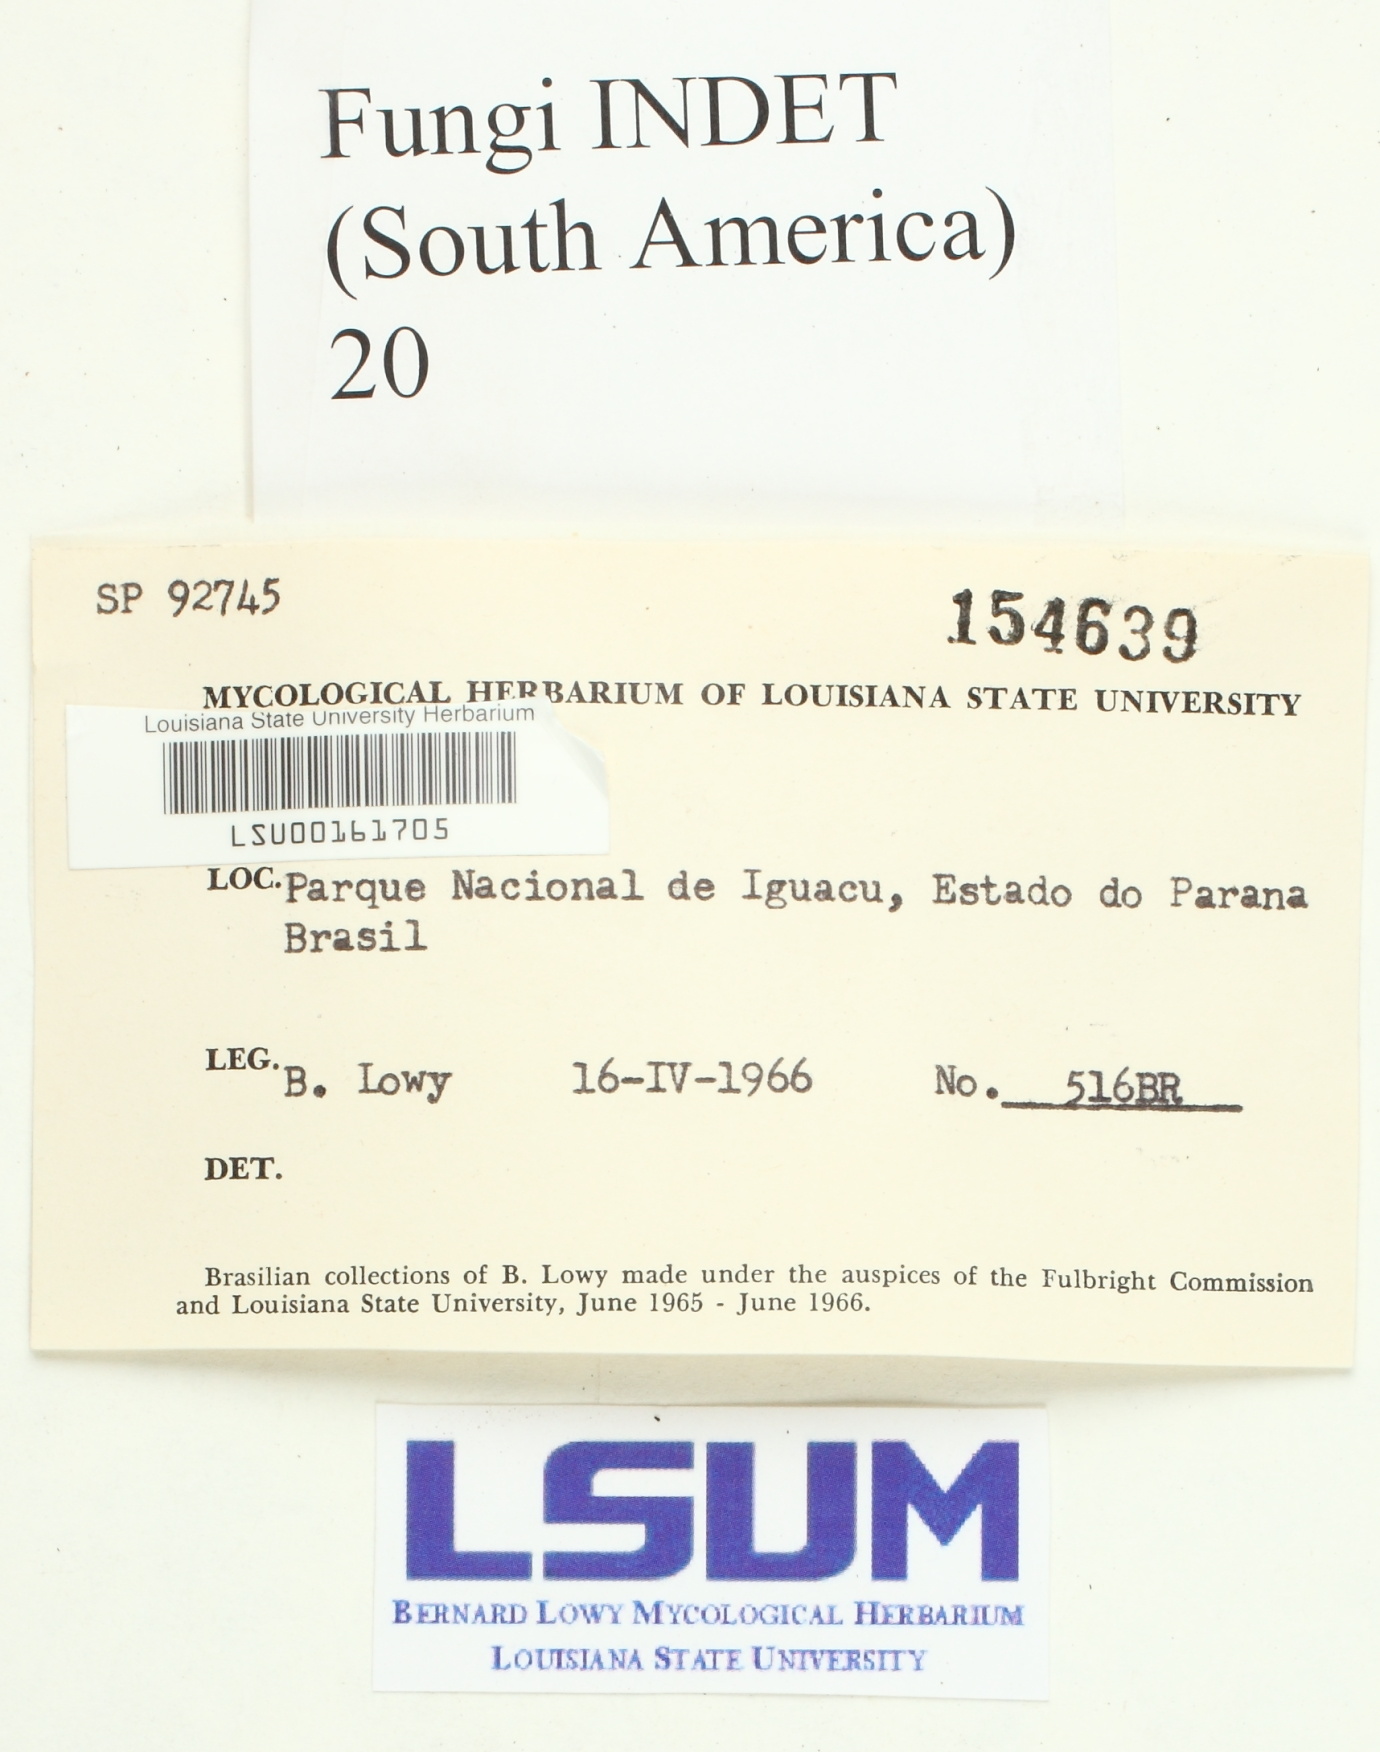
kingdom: Fungi
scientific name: Fungi
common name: Fungi
